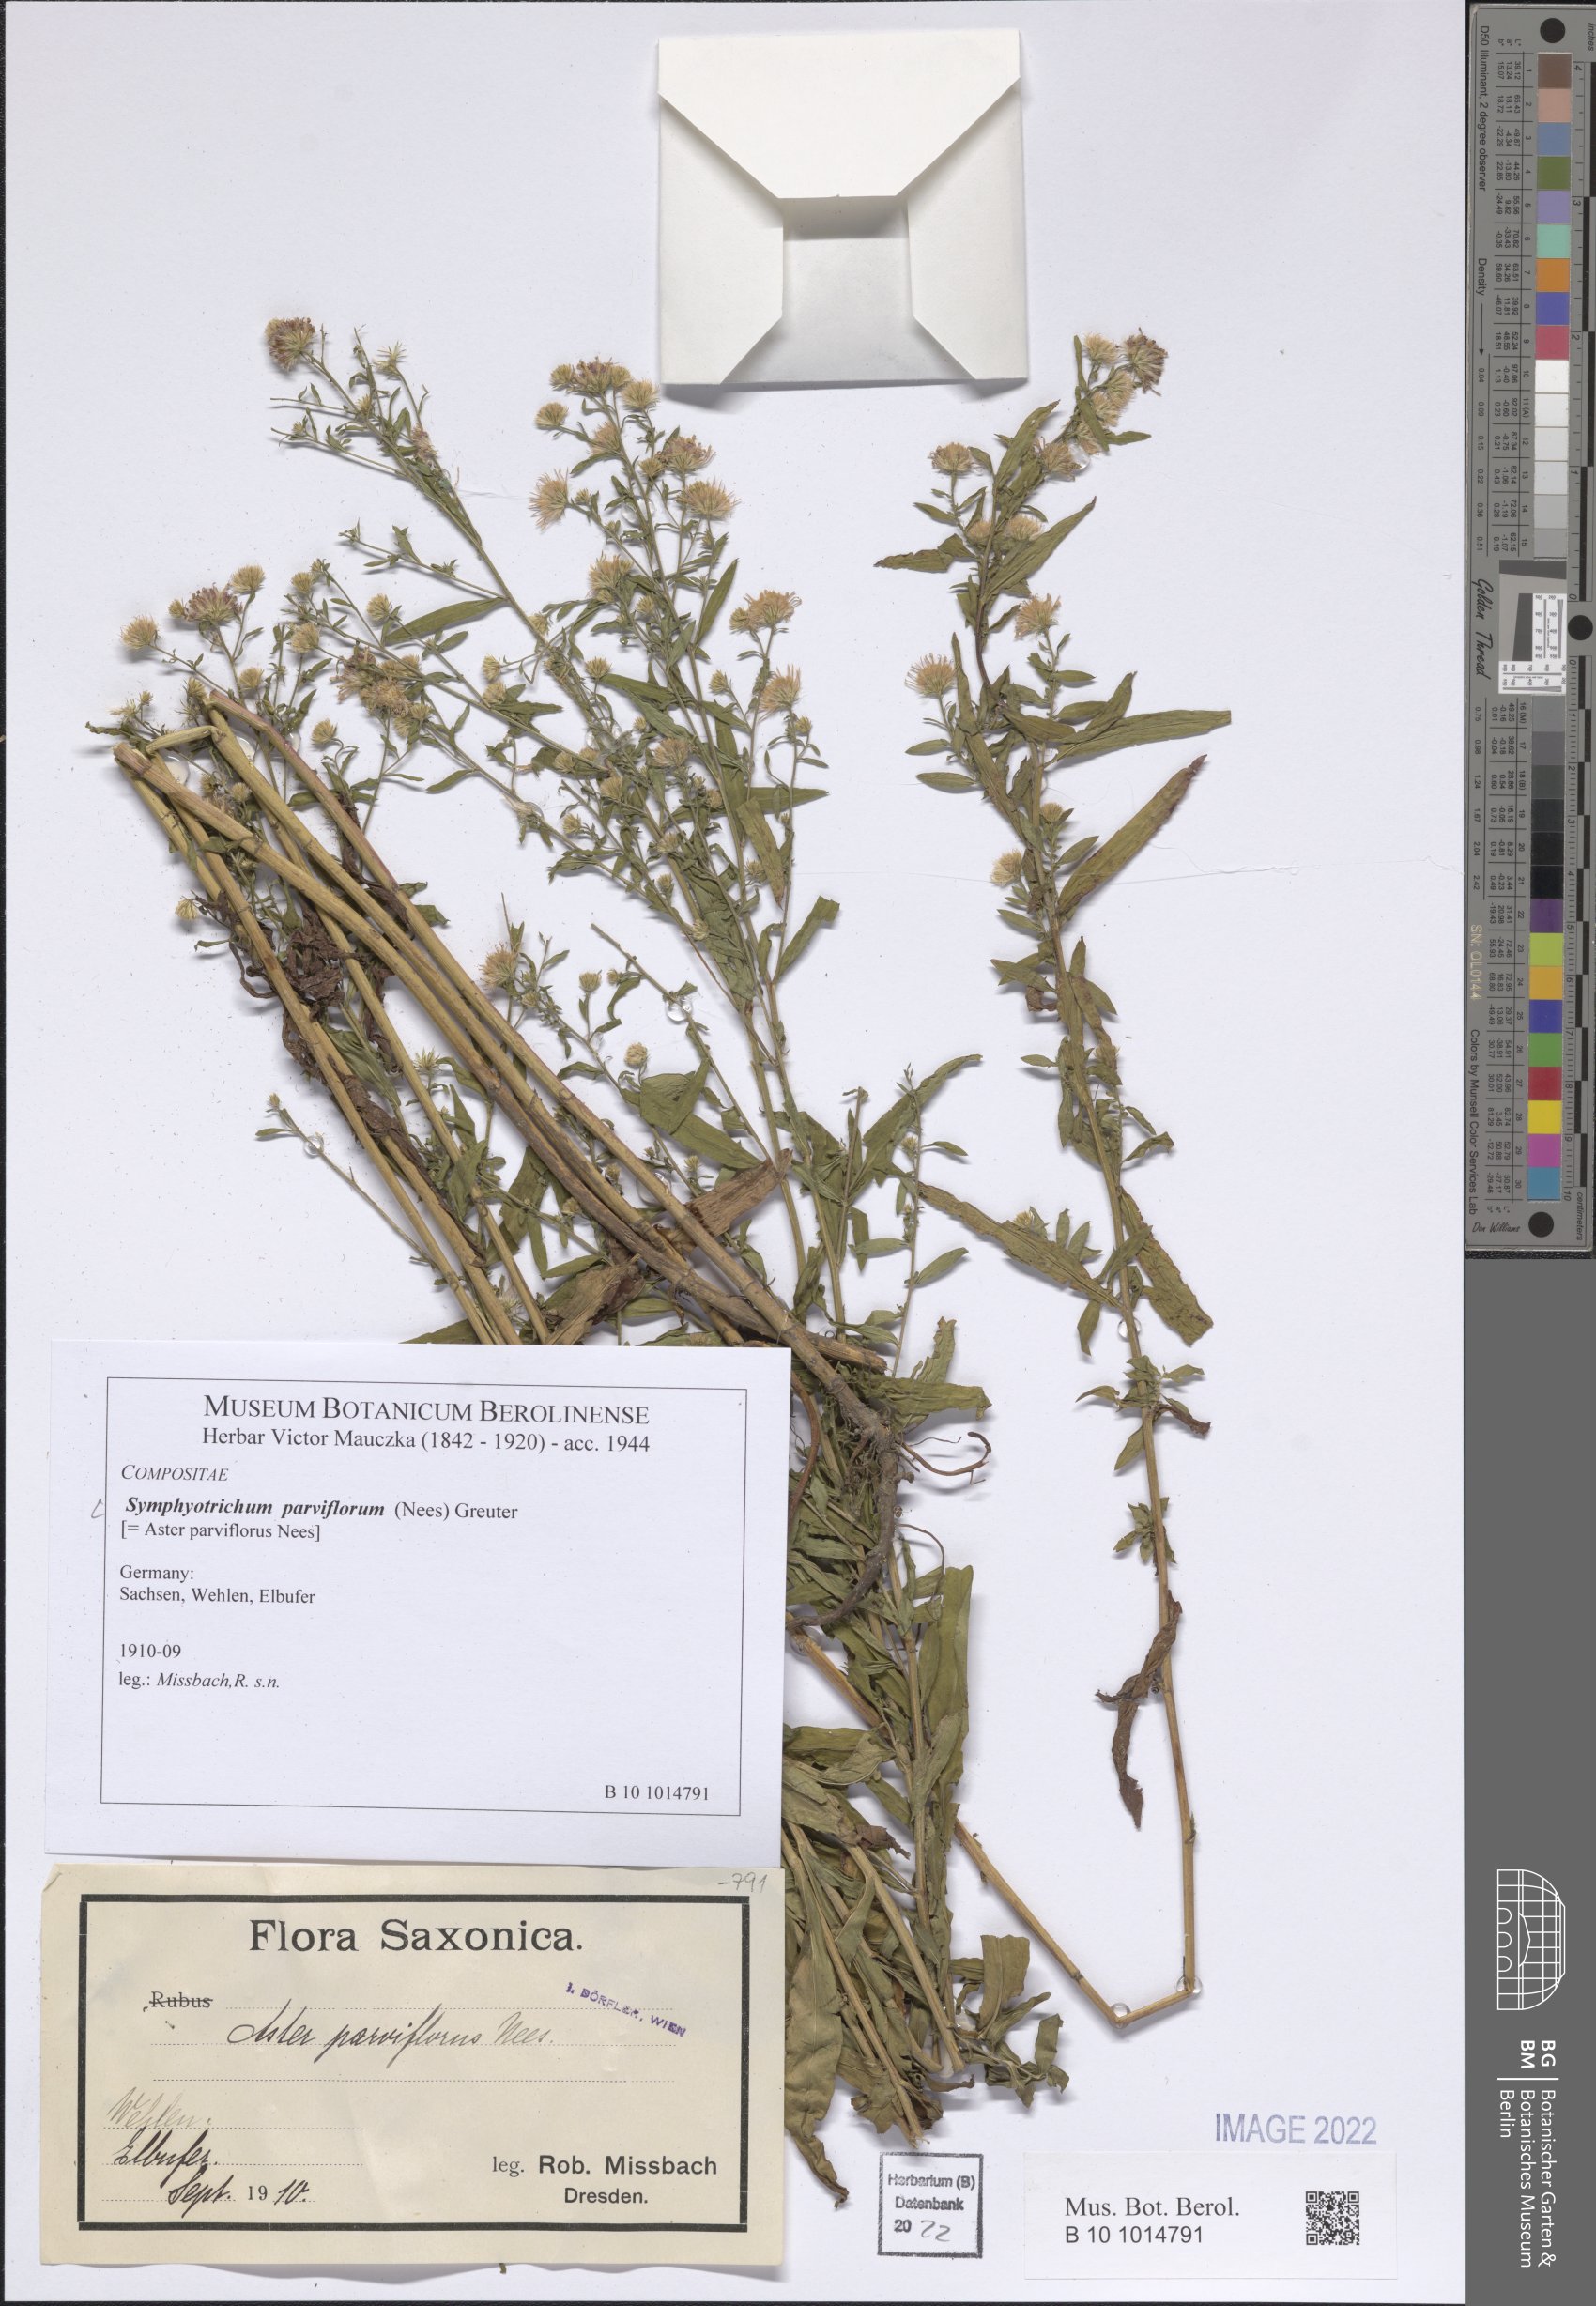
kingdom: Plantae
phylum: Tracheophyta
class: Magnoliopsida
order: Asterales
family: Asteraceae
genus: Symphyotrichum
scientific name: Symphyotrichum expansum
